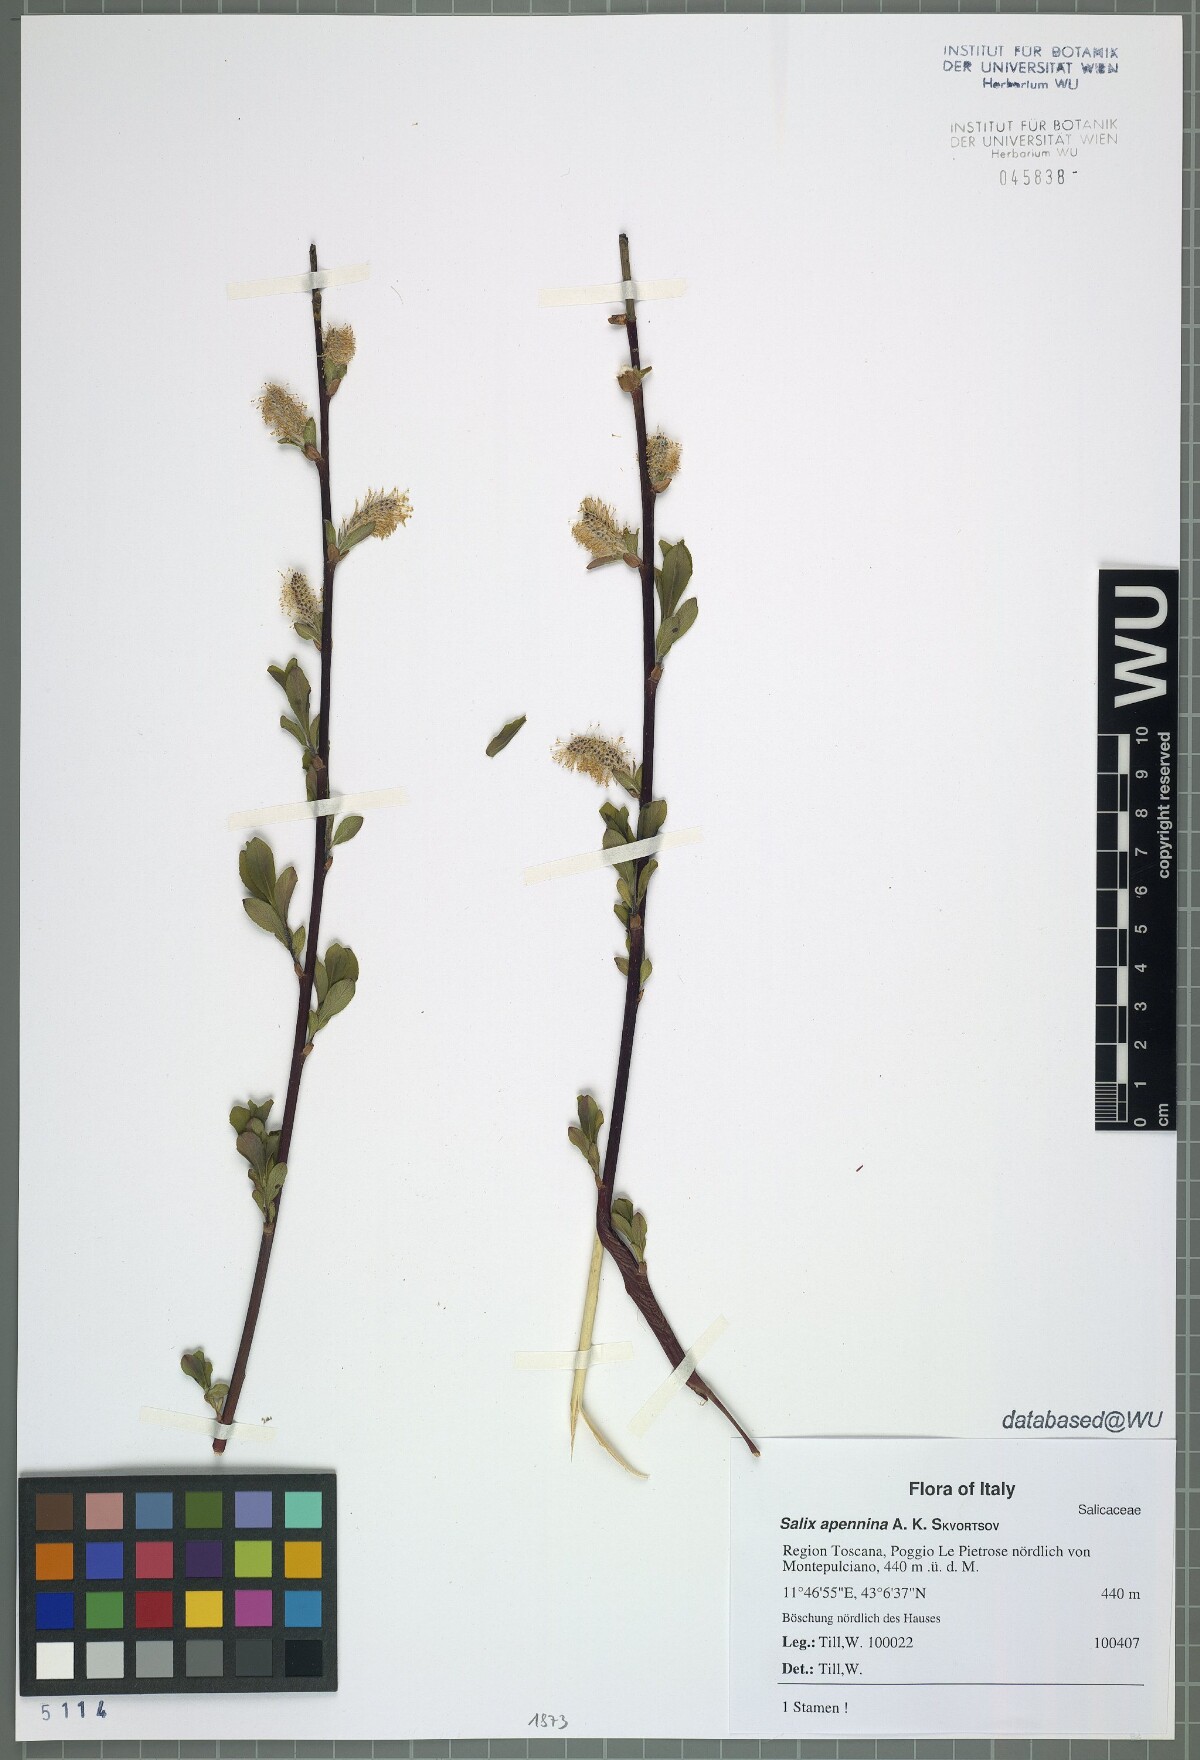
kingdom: Plantae
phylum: Tracheophyta
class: Magnoliopsida
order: Malpighiales
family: Salicaceae
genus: Salix
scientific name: Salix apennina
